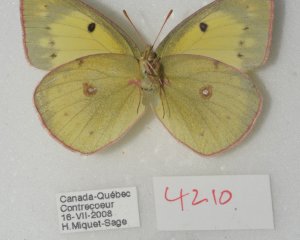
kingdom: Animalia
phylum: Arthropoda
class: Insecta
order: Lepidoptera
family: Pieridae
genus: Colias
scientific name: Colias philodice
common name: Clouded Sulphur
